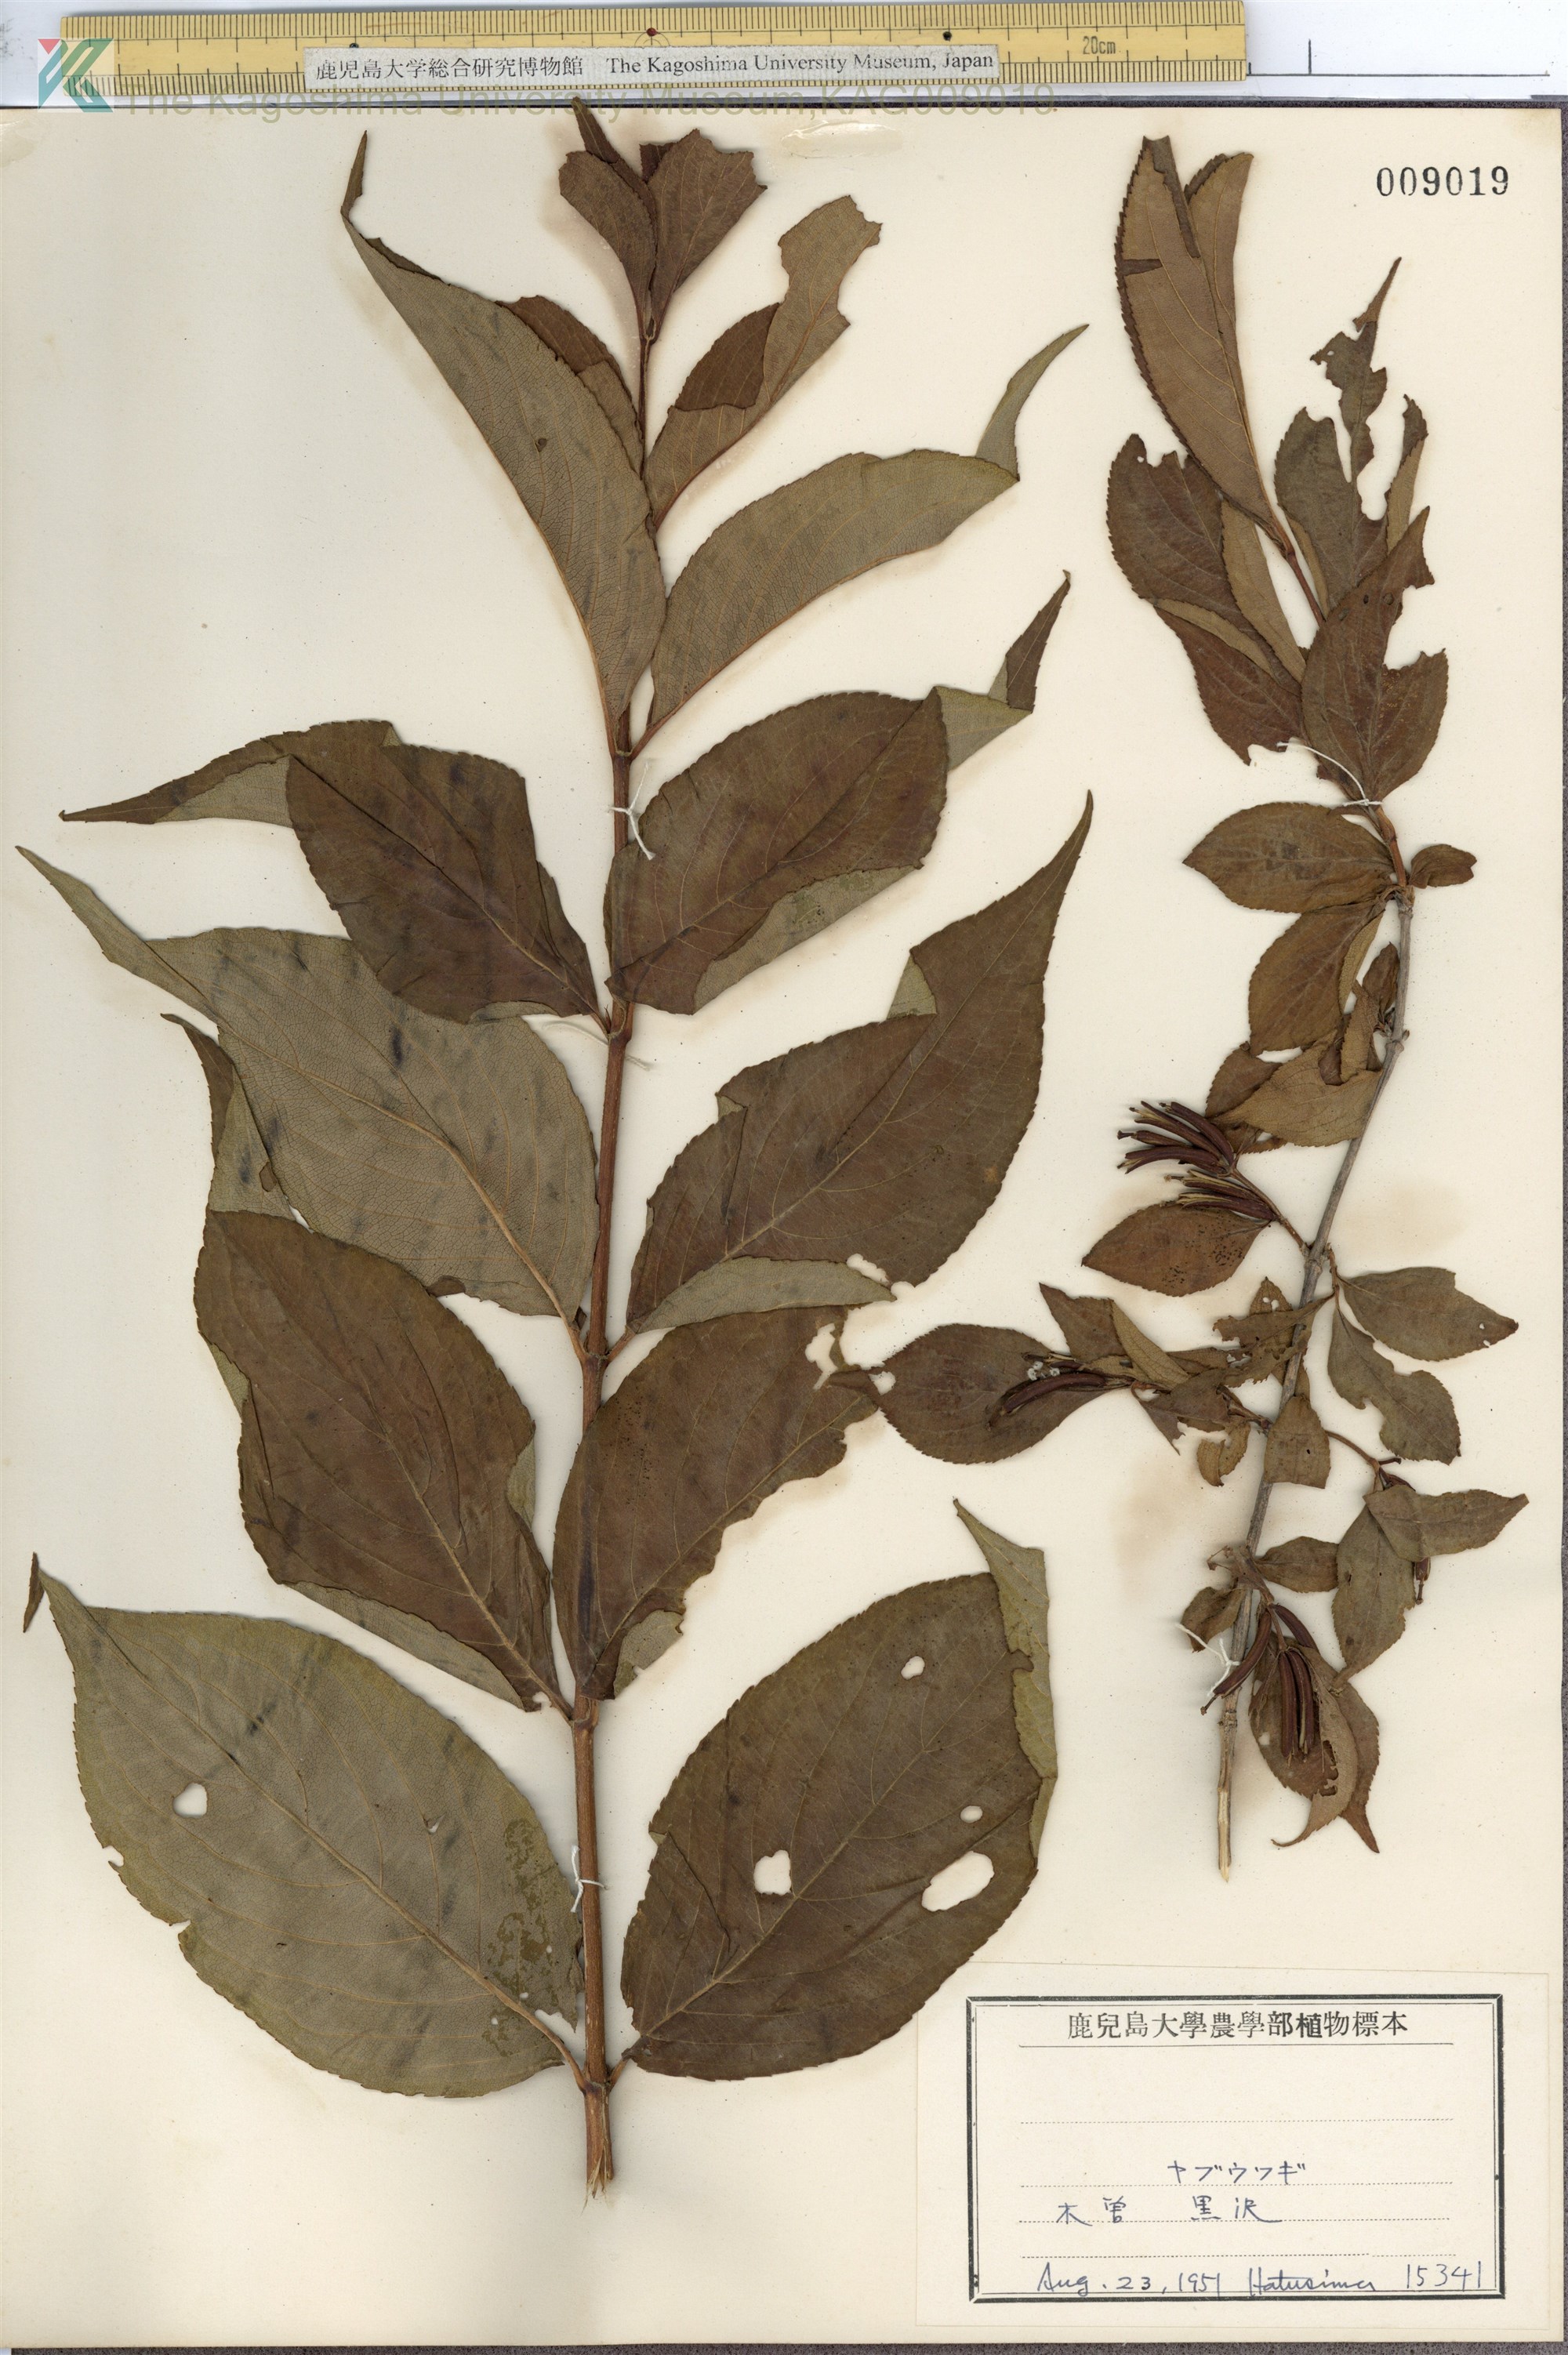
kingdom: Plantae
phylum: Tracheophyta
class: Magnoliopsida
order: Dipsacales
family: Caprifoliaceae
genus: Weigela
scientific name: Weigela decora
